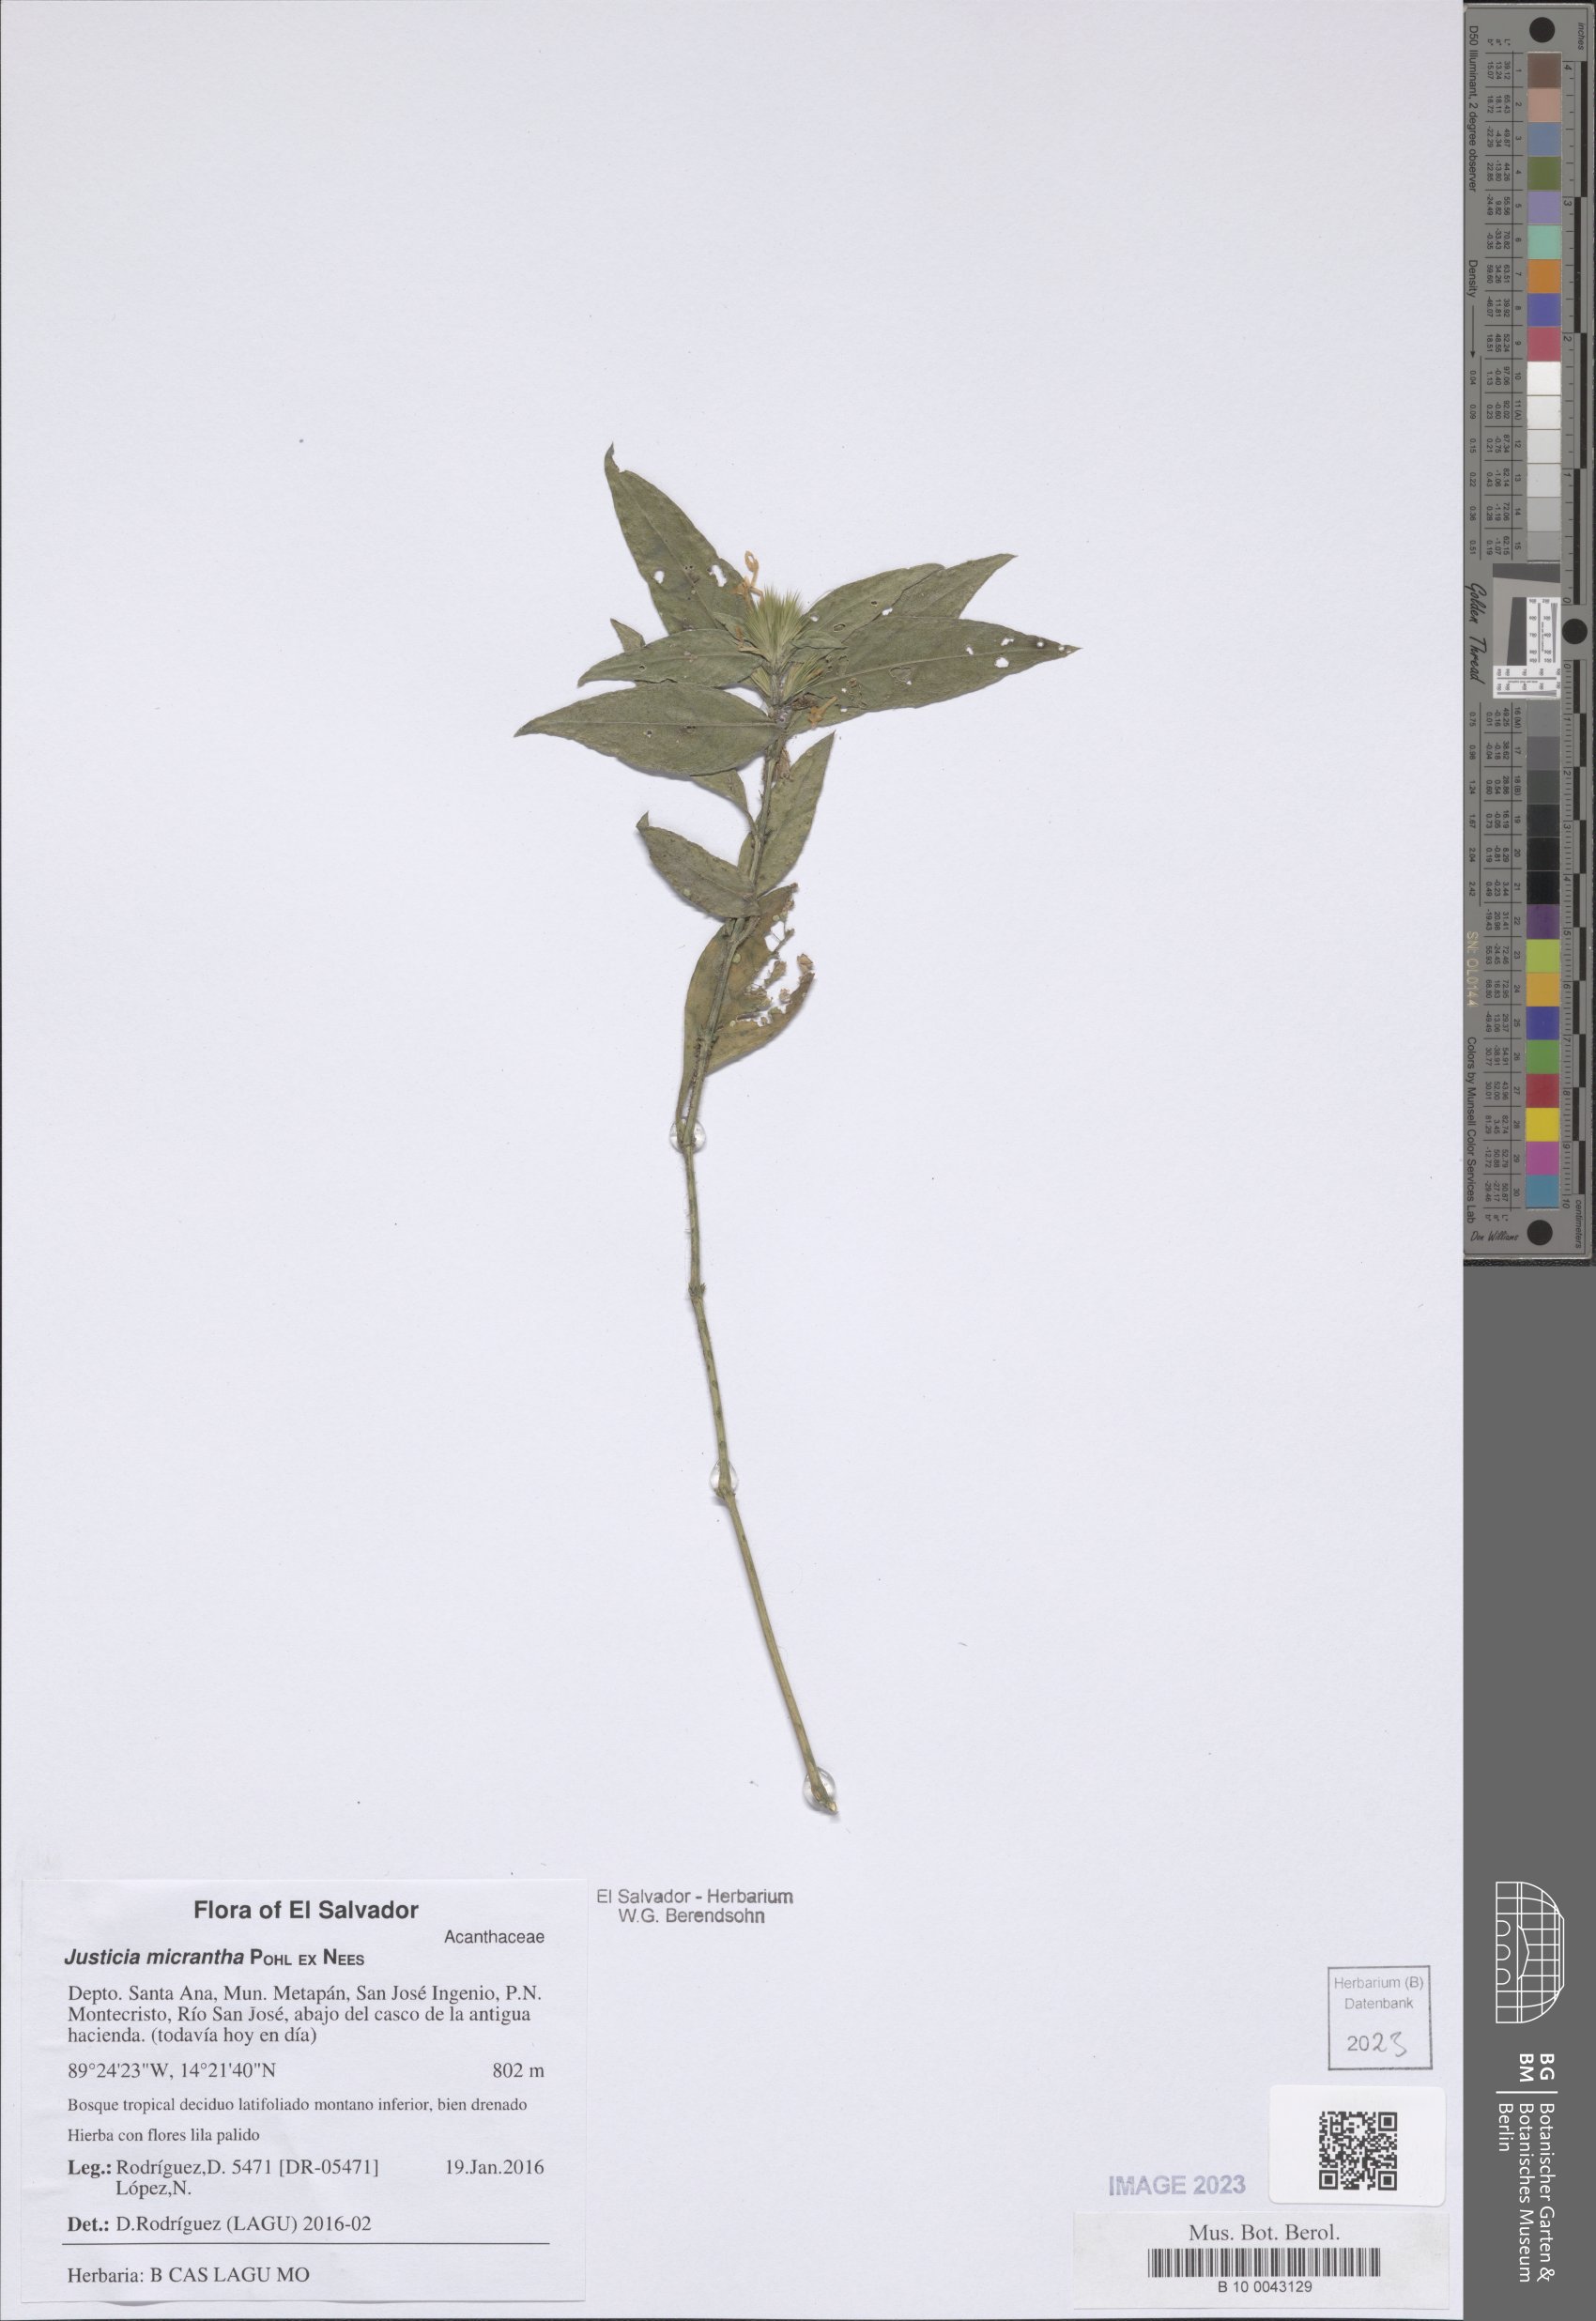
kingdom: Plantae
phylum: Tracheophyta
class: Magnoliopsida
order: Lamiales
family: Acanthaceae
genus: Justicia
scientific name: Justicia Tyloglossa adenostachya
